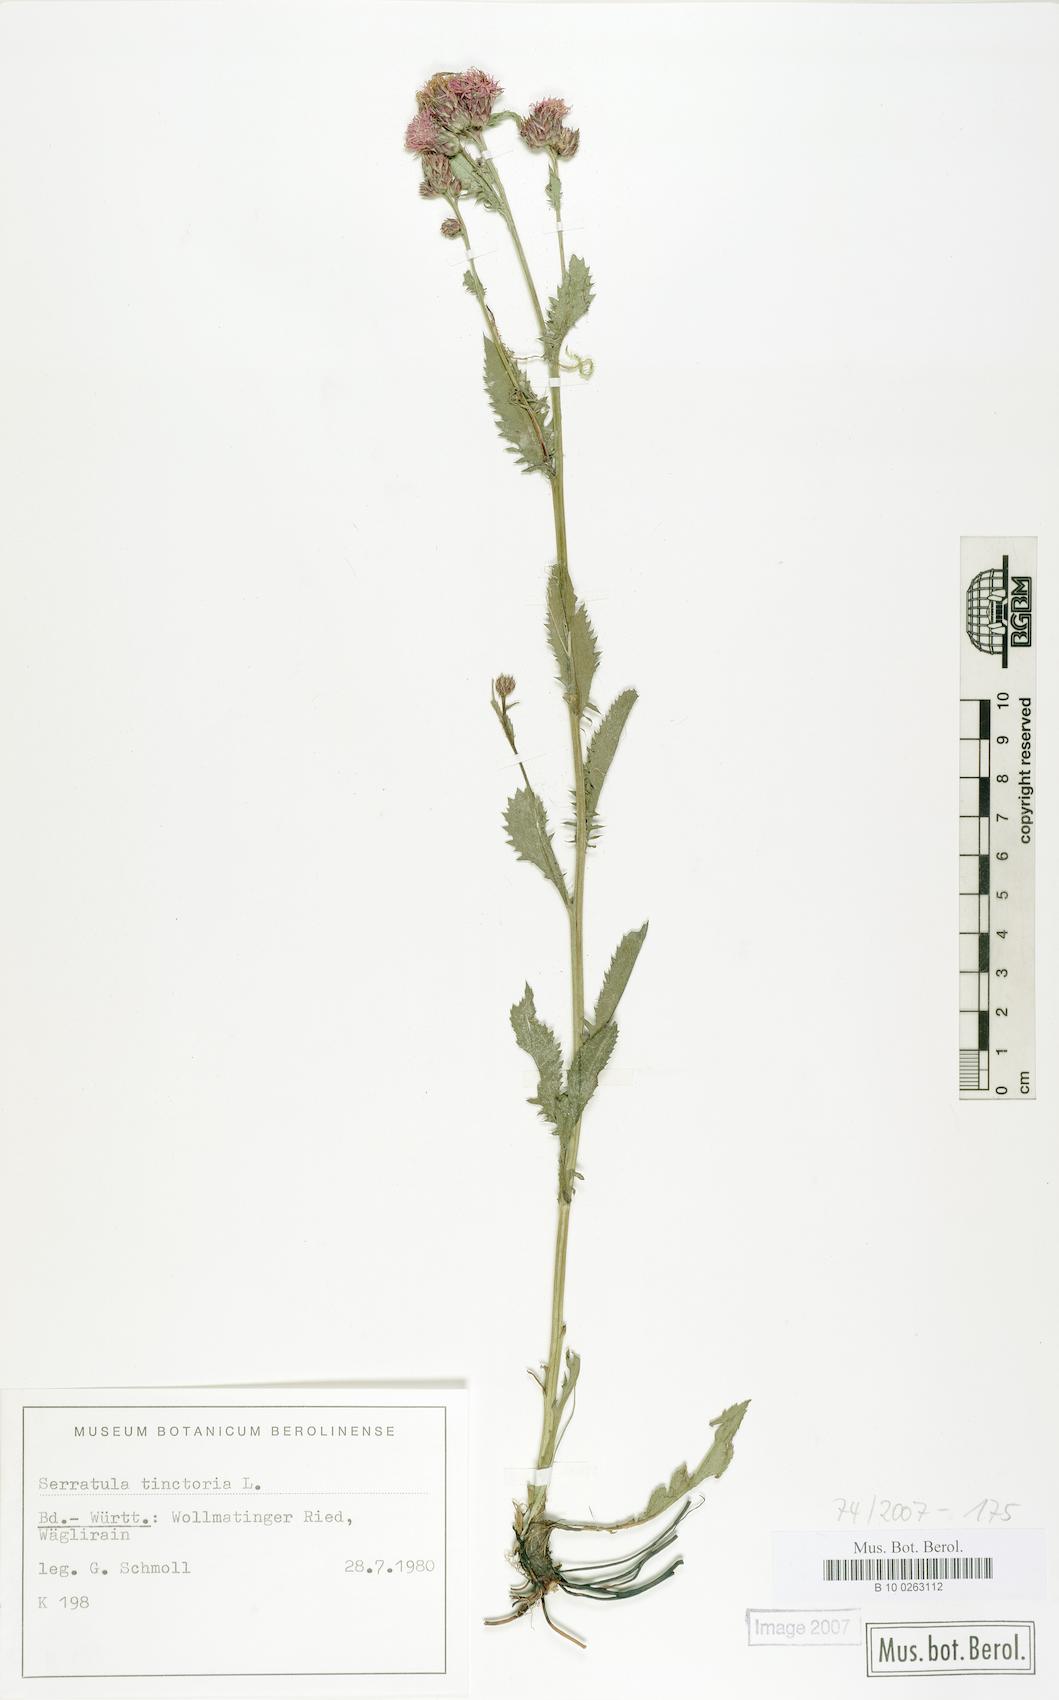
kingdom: Plantae
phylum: Tracheophyta
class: Magnoliopsida
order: Asterales
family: Asteraceae
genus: Serratula
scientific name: Serratula tinctoria
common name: Saw-wort
